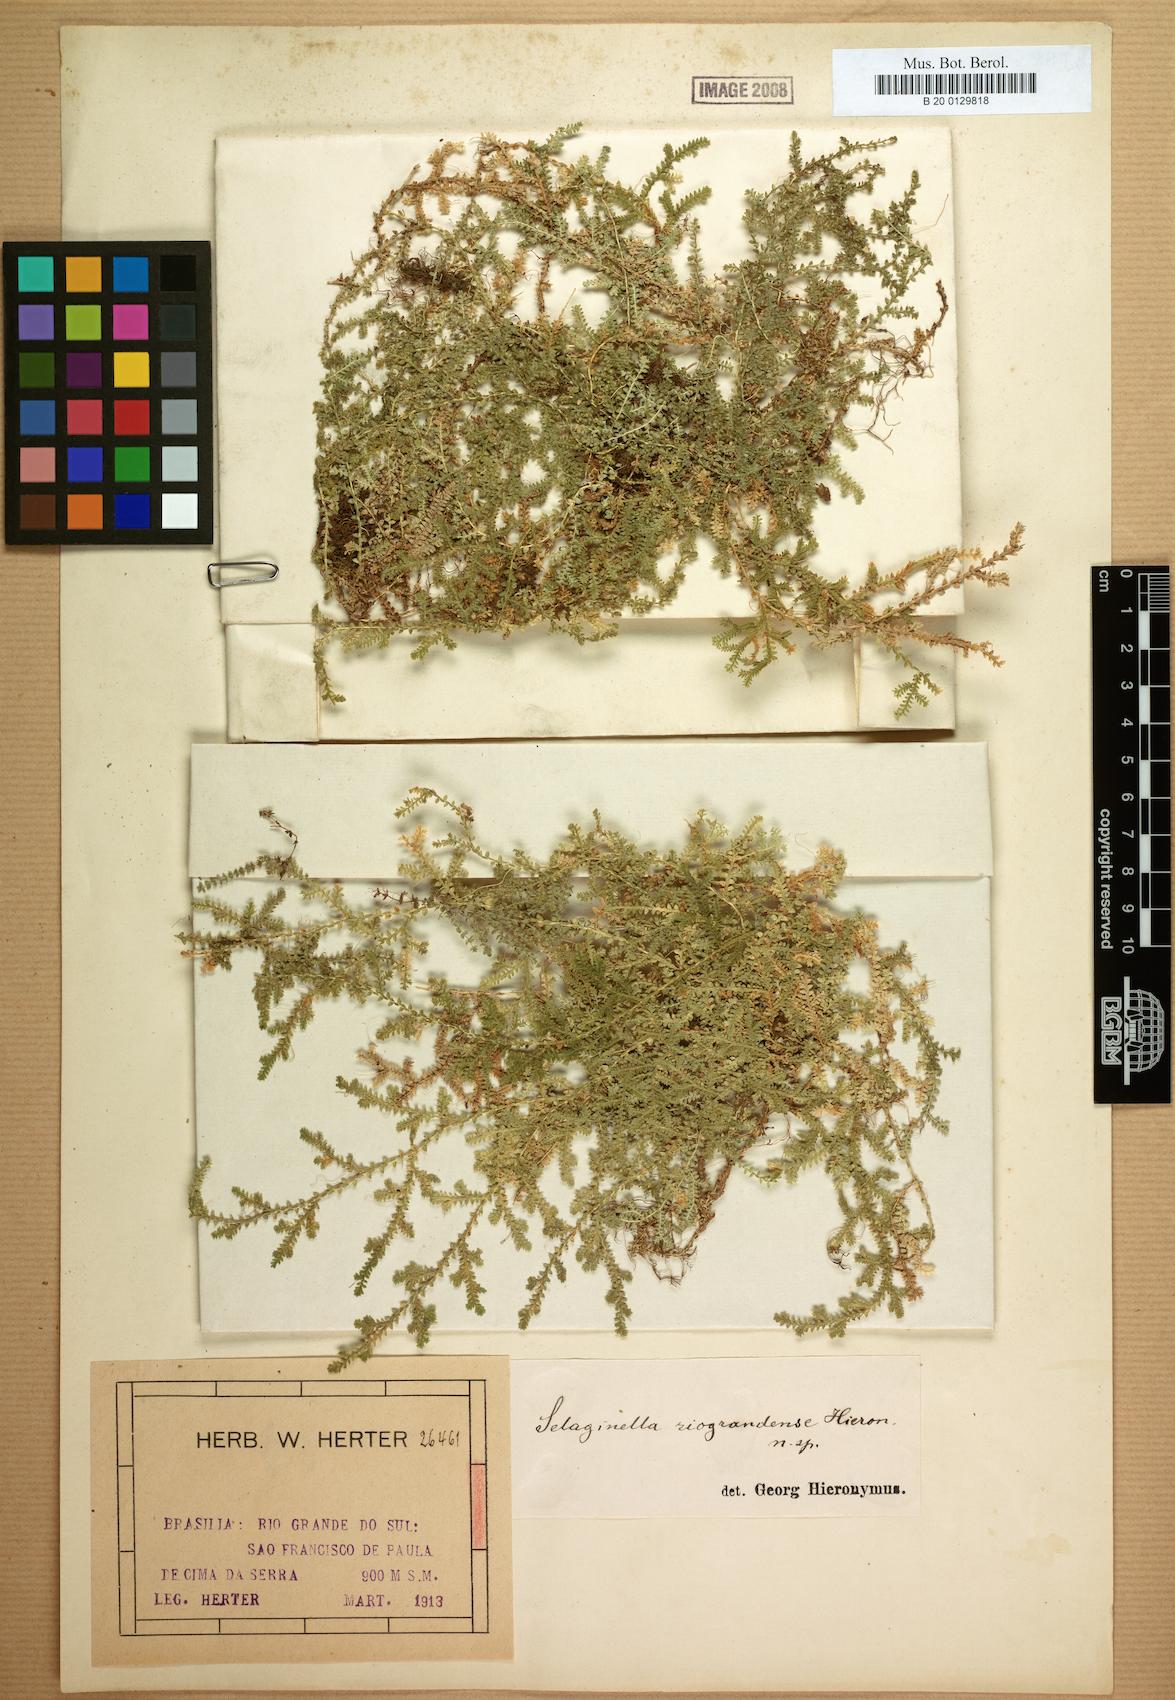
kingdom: Plantae
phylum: Tracheophyta
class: Lycopodiopsida
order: Selaginellales
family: Selaginellaceae
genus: Selaginella
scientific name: Selaginella marginata
